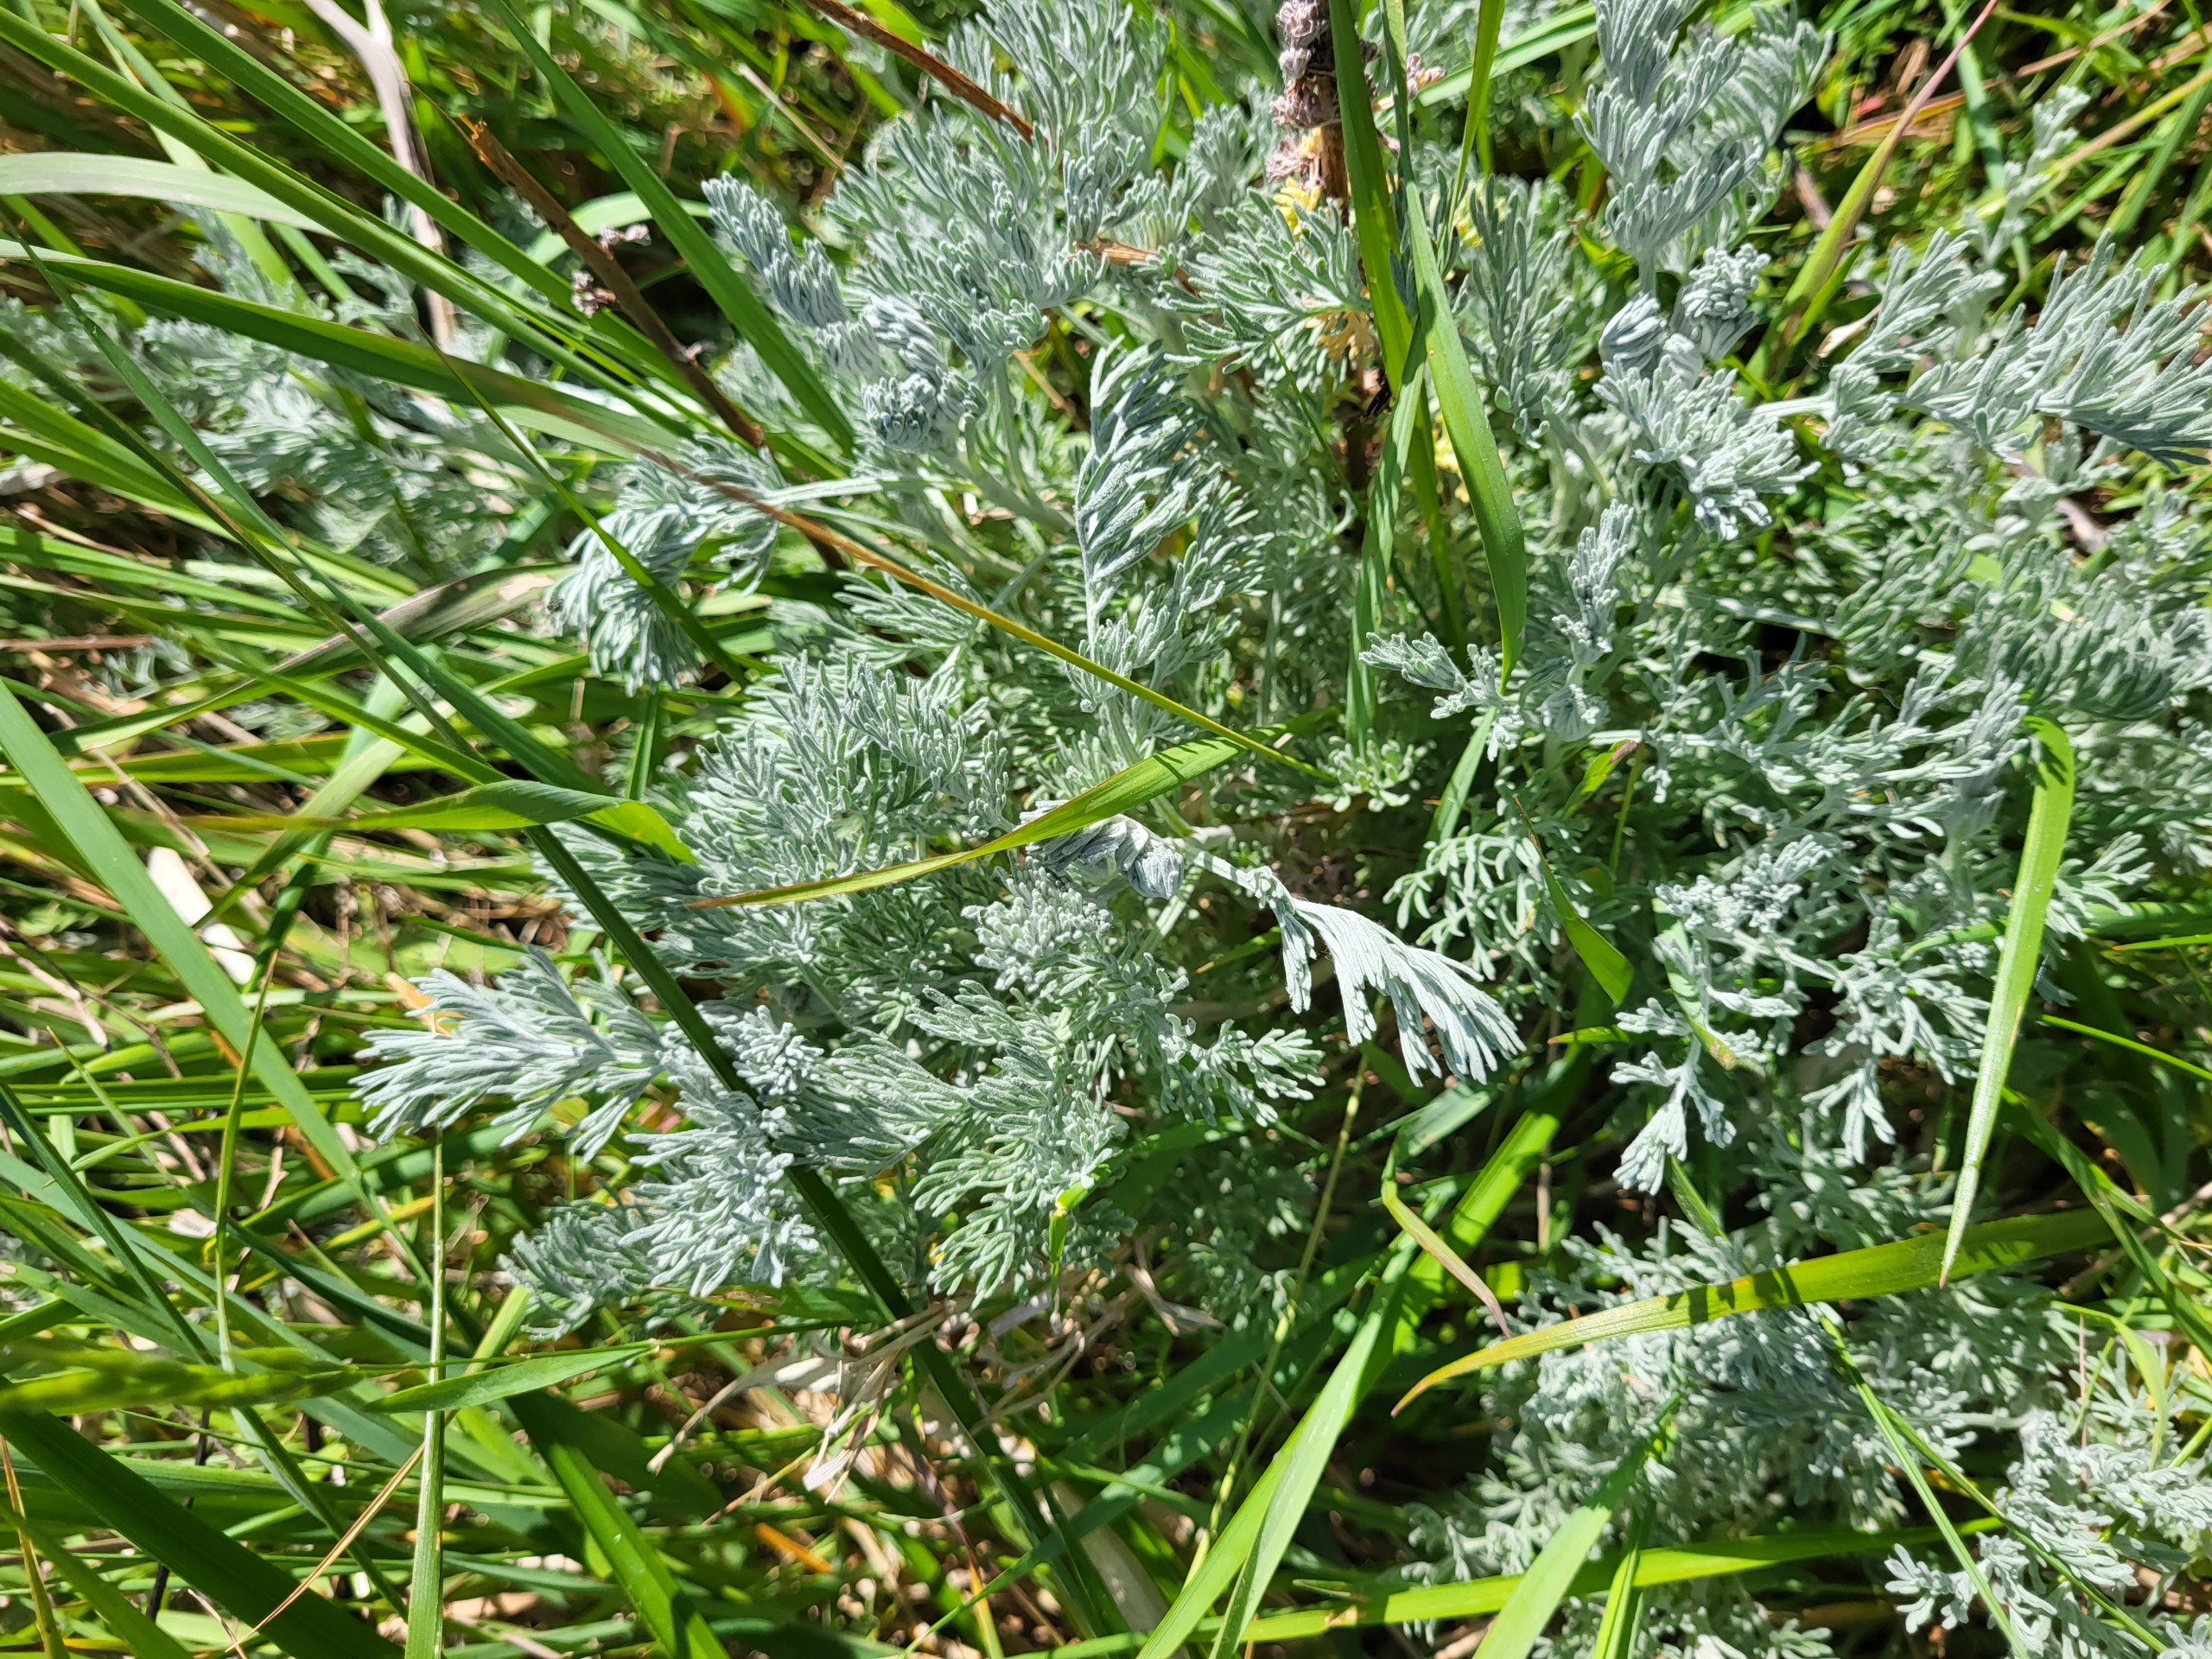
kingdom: Plantae
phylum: Tracheophyta
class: Magnoliopsida
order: Asterales
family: Asteraceae
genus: Artemisia
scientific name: Artemisia maritima
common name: Strandmalurt
